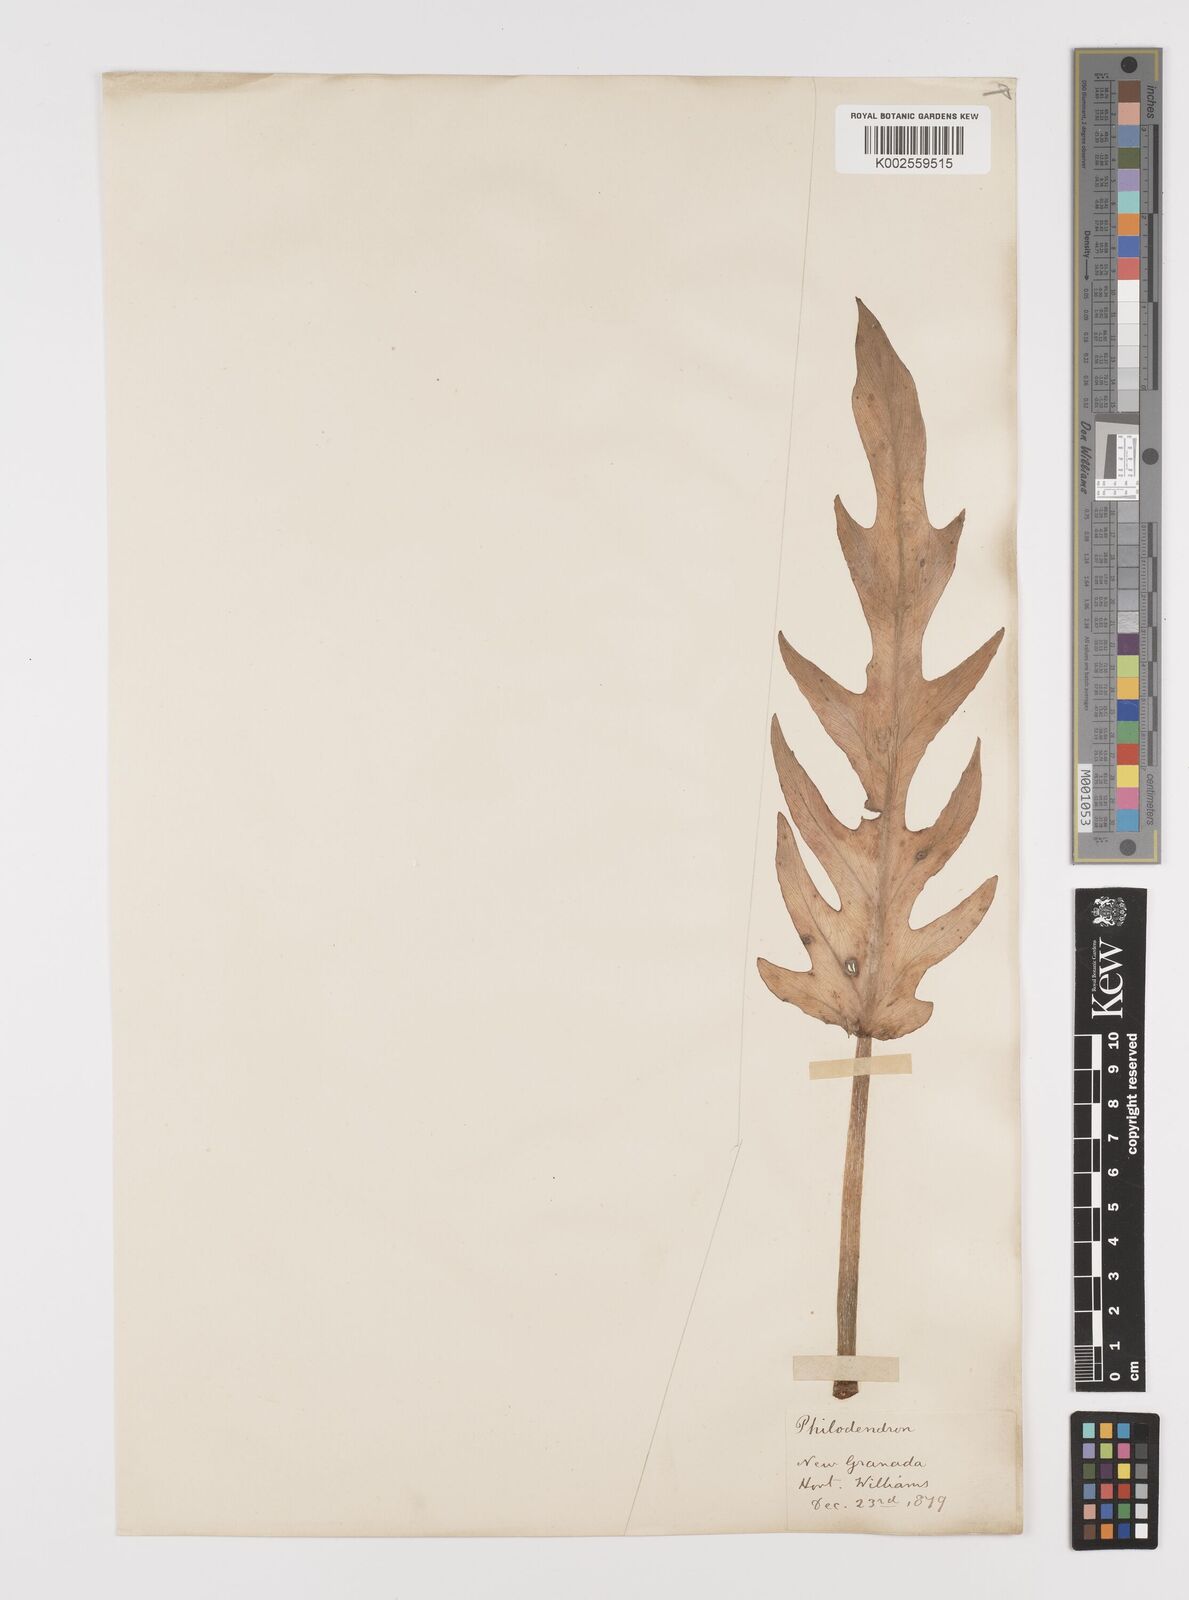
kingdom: Plantae
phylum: Tracheophyta
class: Liliopsida
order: Alismatales
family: Araceae
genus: Philodendron
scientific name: Philodendron
